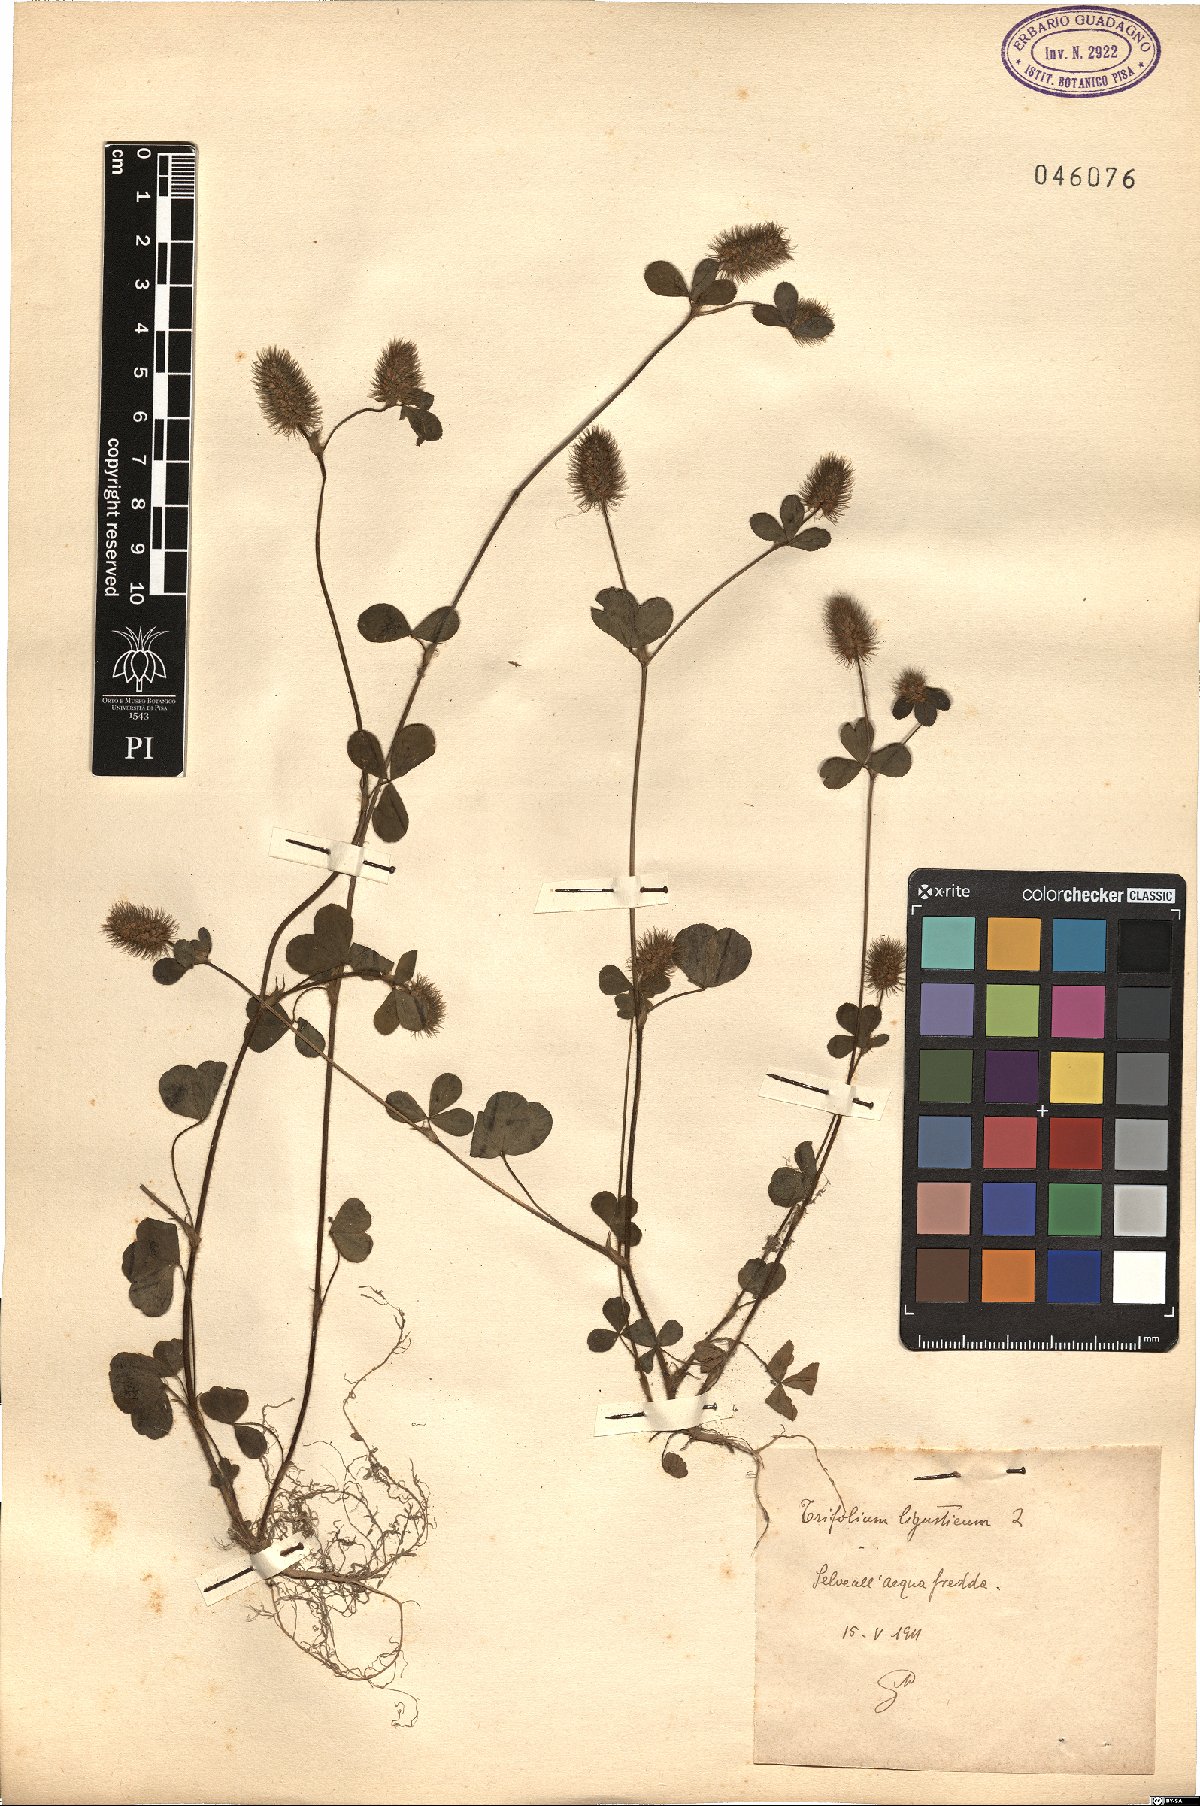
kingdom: Plantae
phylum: Tracheophyta
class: Magnoliopsida
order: Fabales
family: Fabaceae
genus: Trifolium
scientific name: Trifolium ligusticum
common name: Ligurian clover
